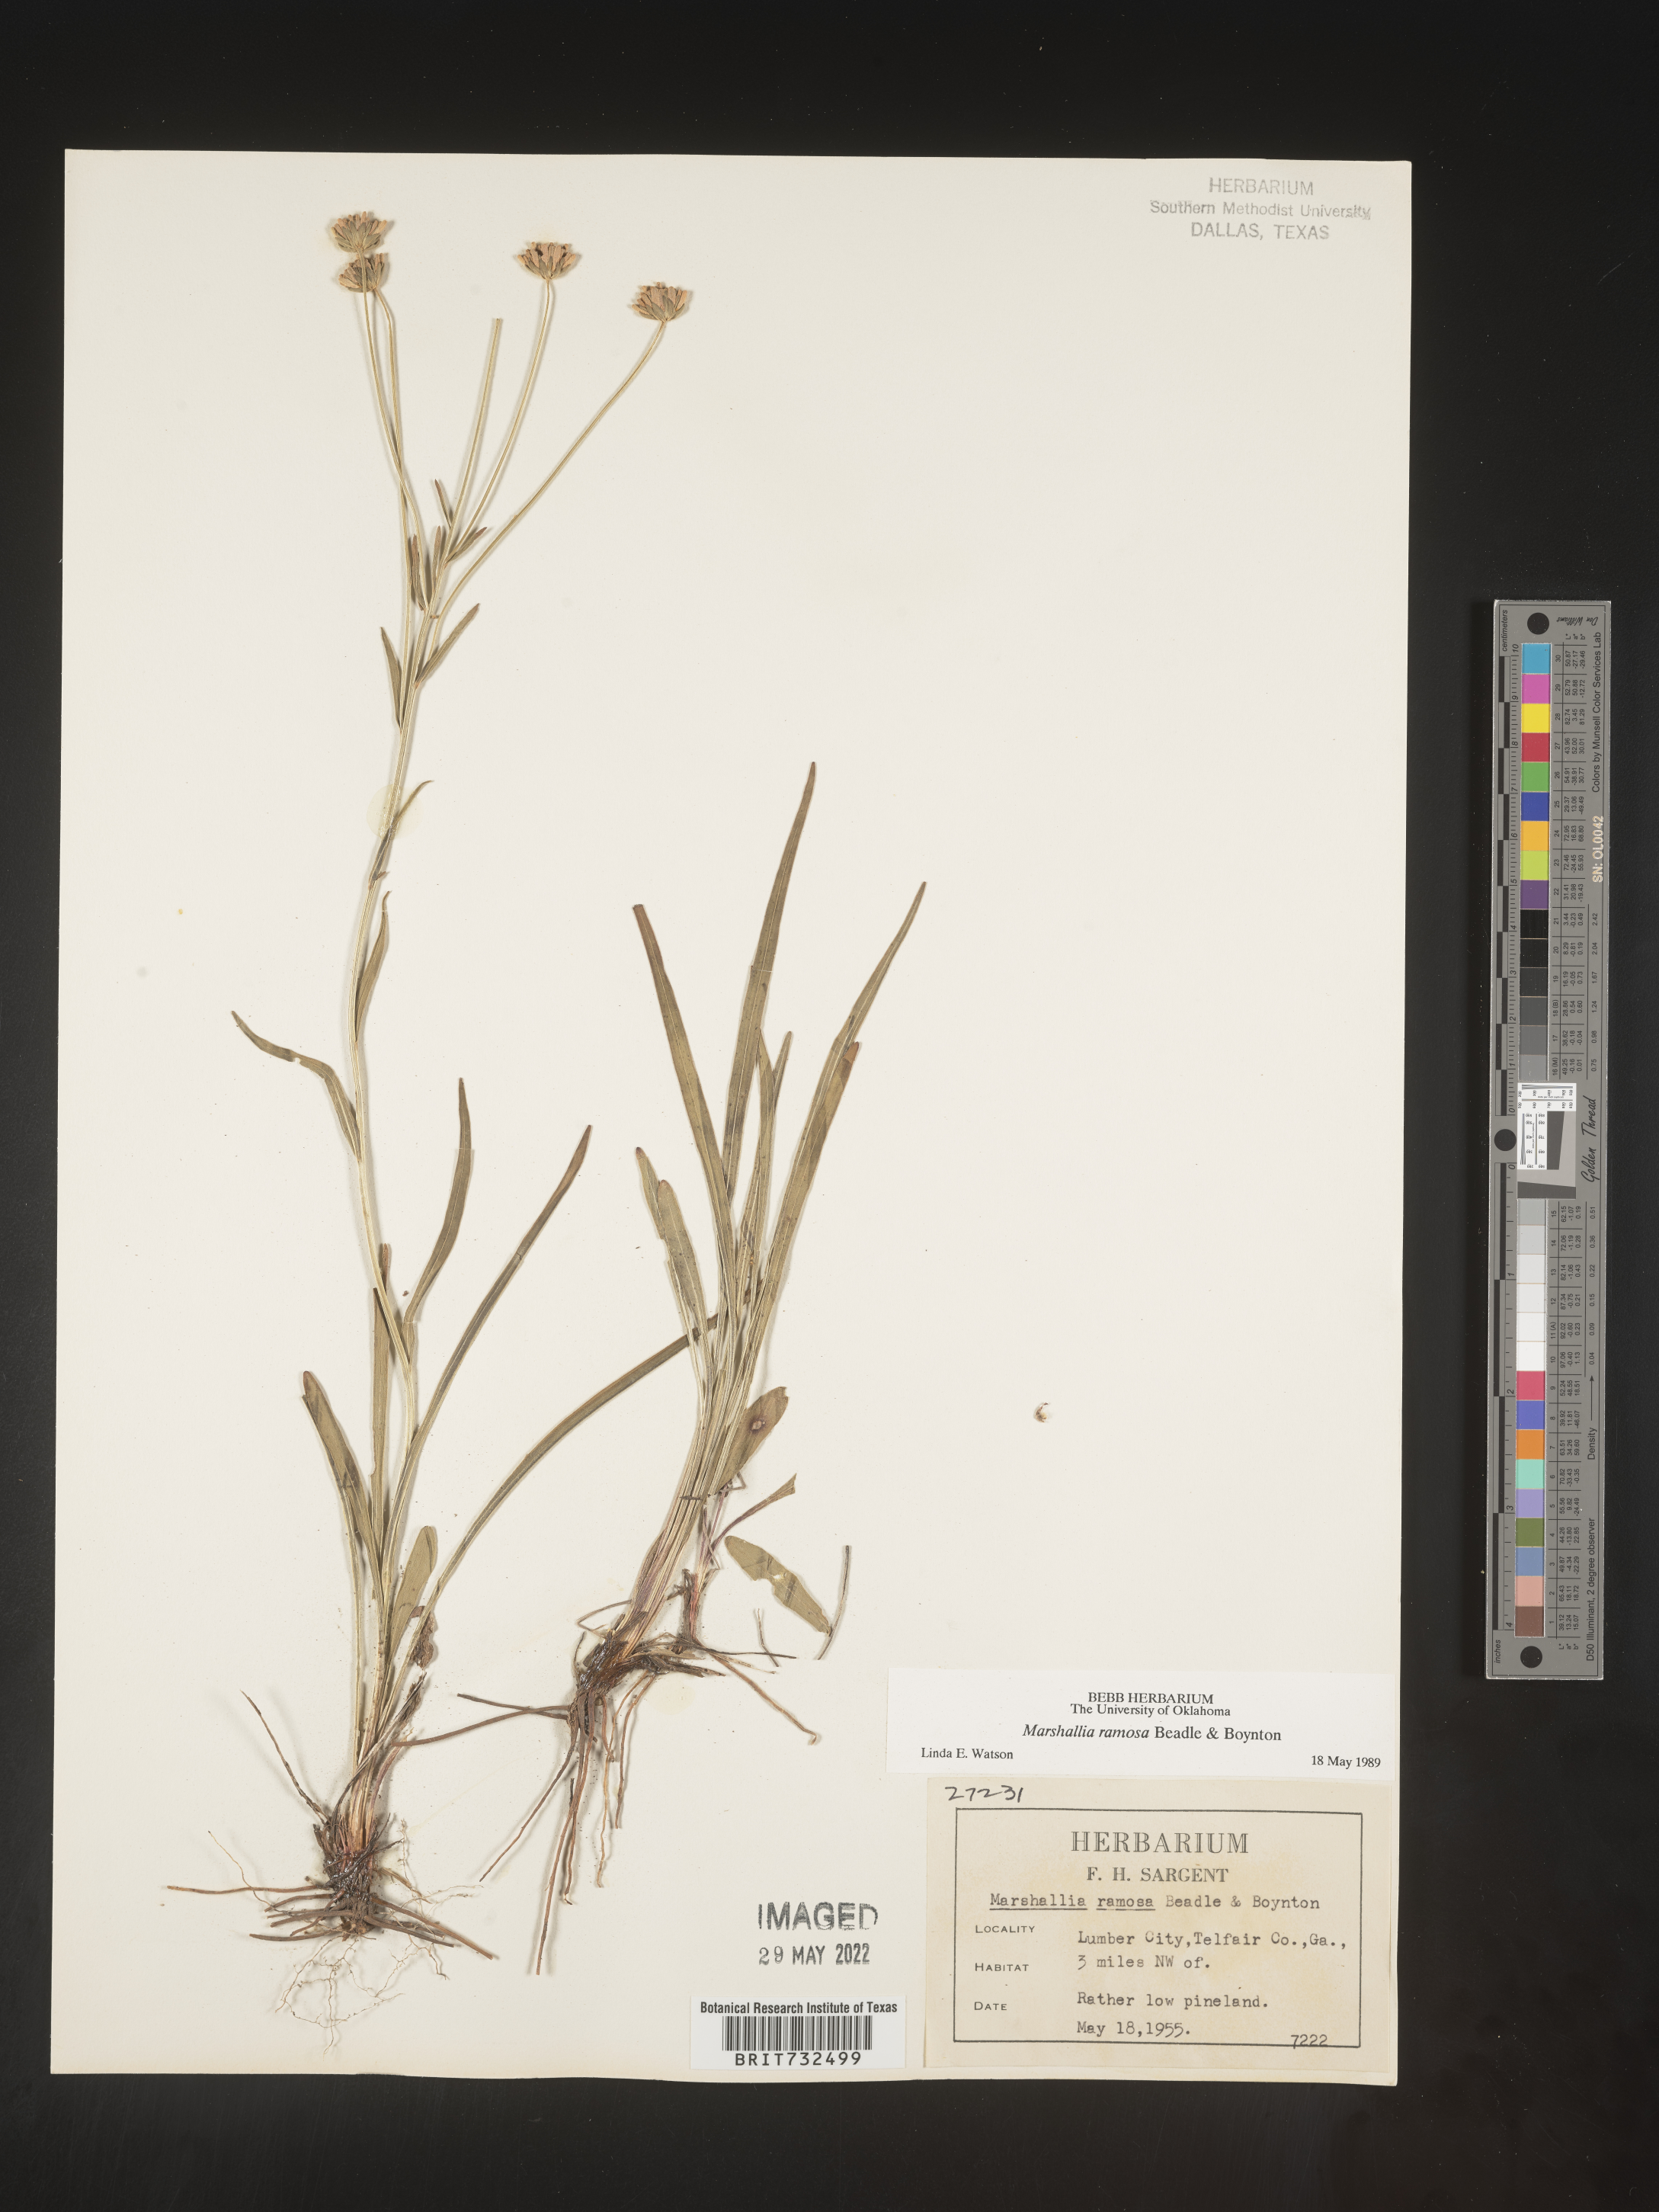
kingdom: Plantae
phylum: Tracheophyta
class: Magnoliopsida
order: Asterales
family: Asteraceae
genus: Marshallia
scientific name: Marshallia ramosa
